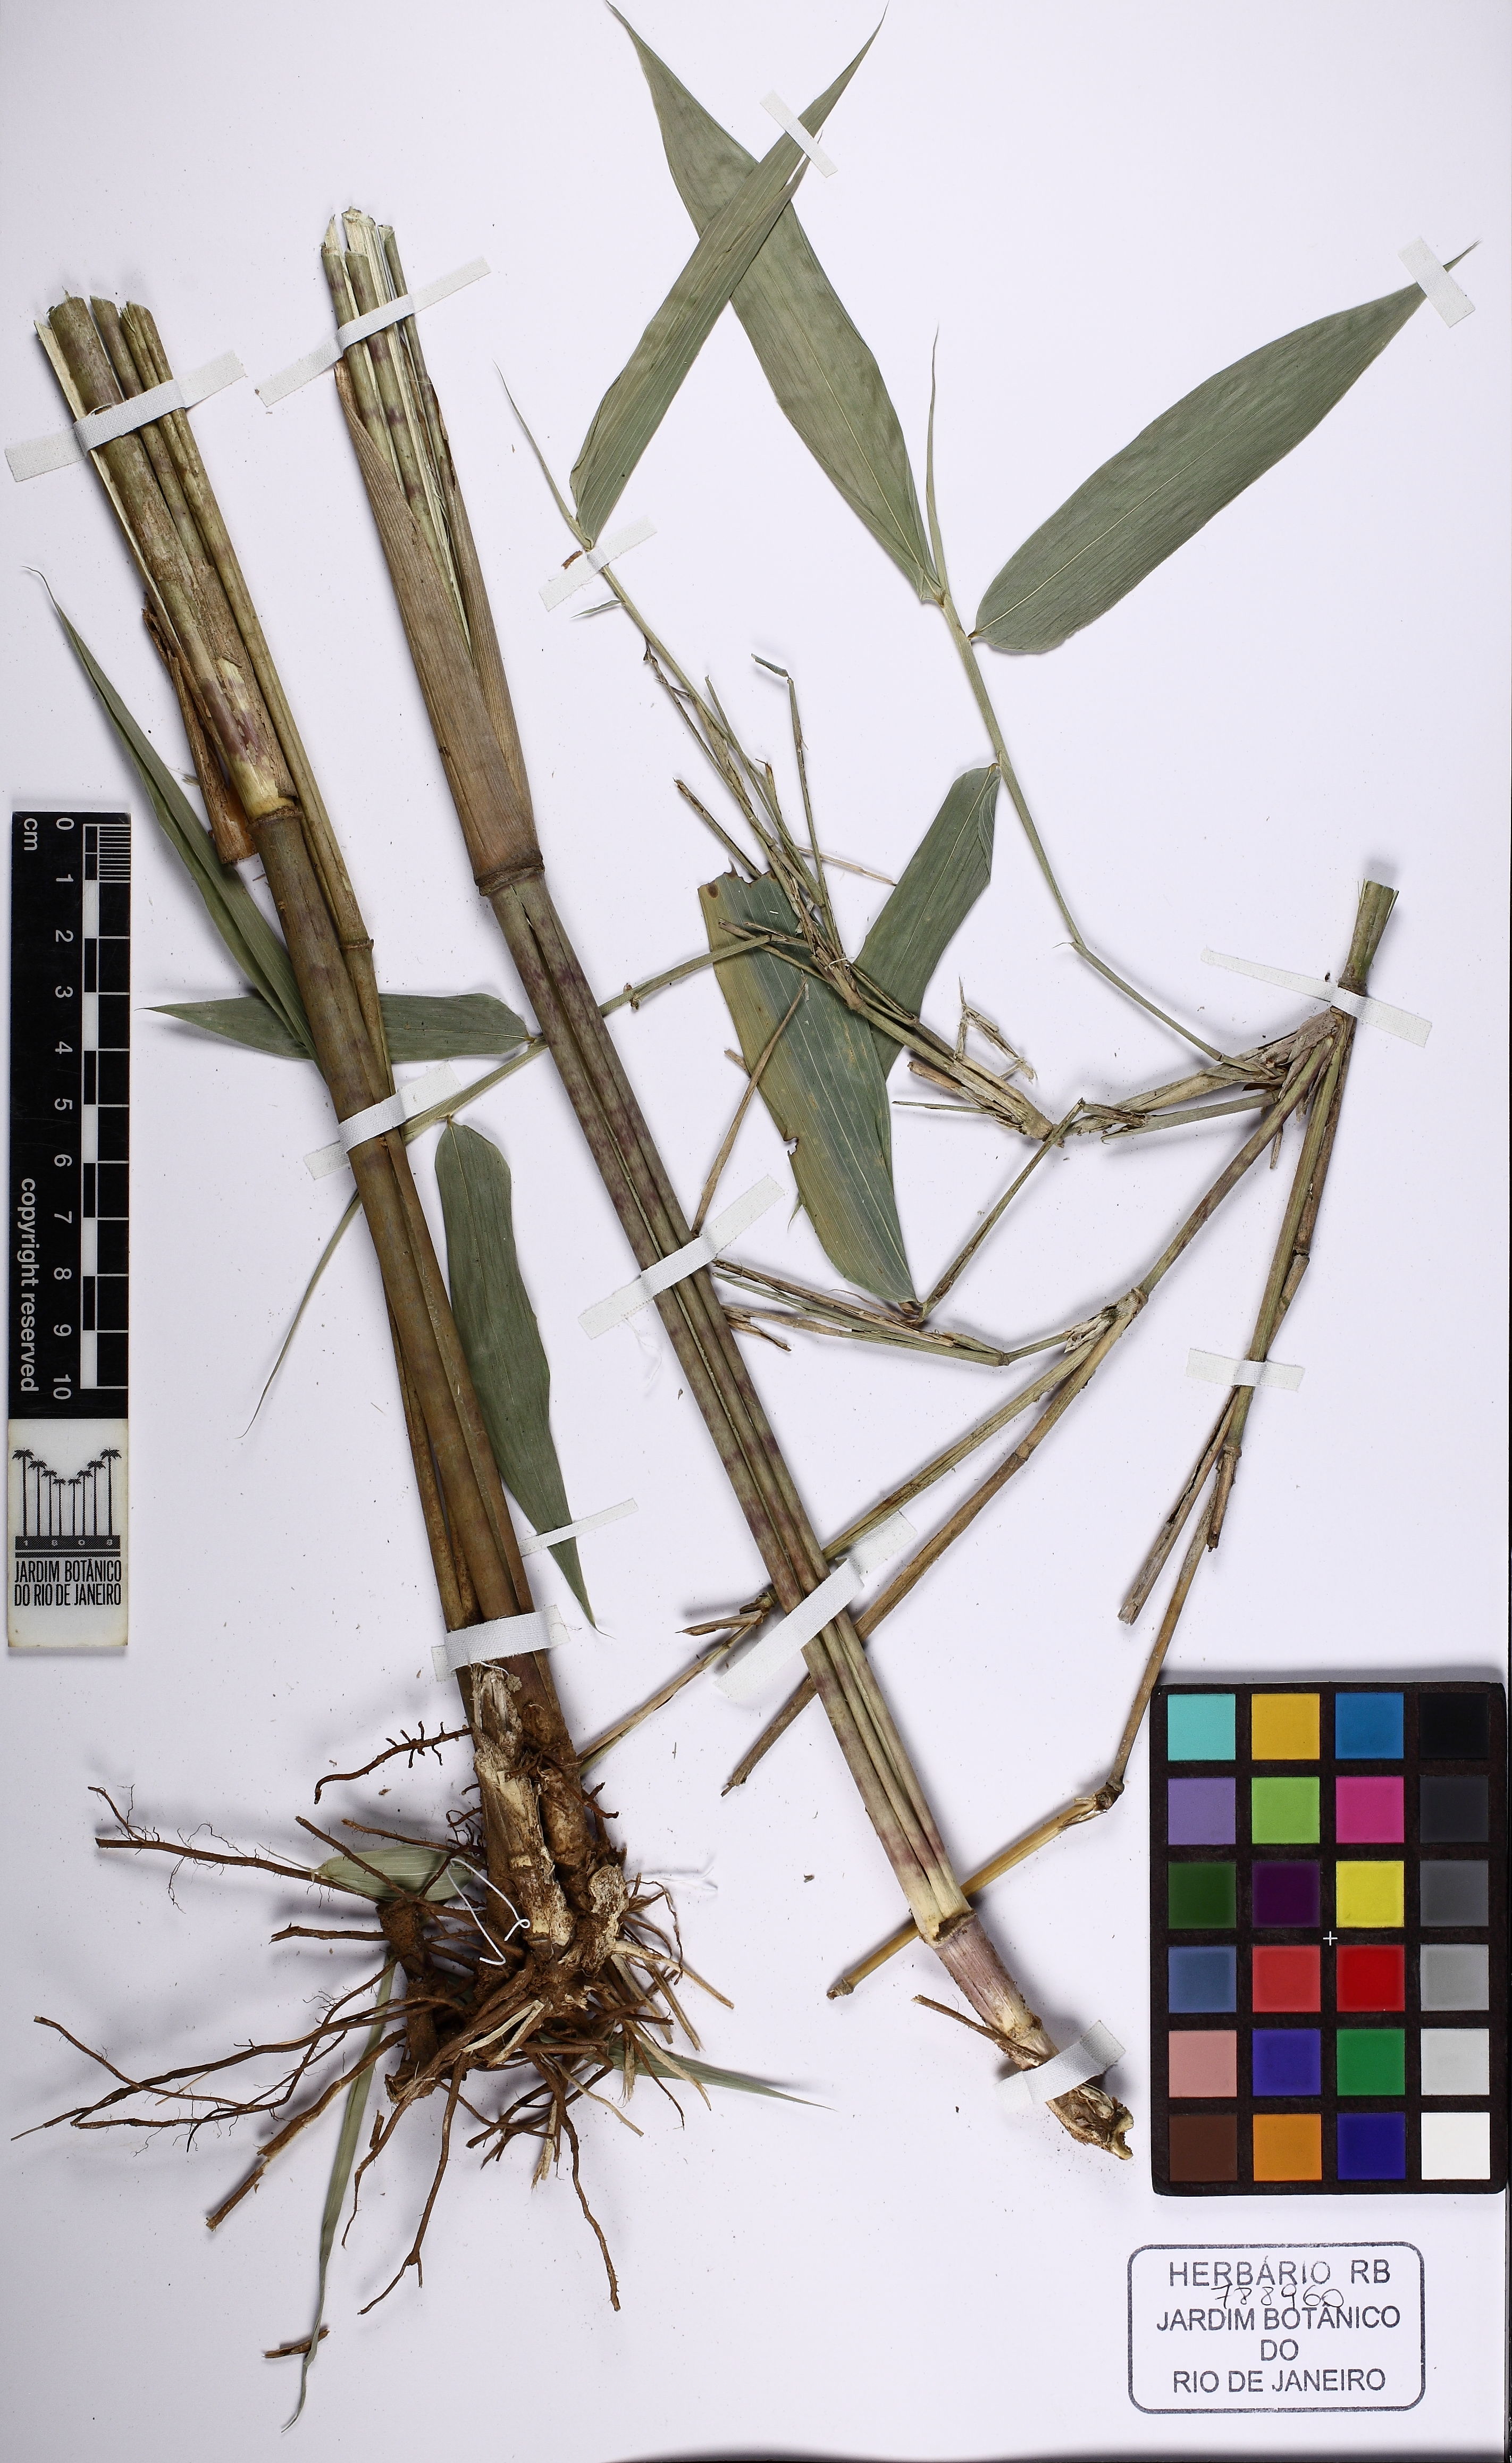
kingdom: Plantae
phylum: Tracheophyta
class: Liliopsida
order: Poales
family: Poaceae
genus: Olyra
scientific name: Olyra latifolia
